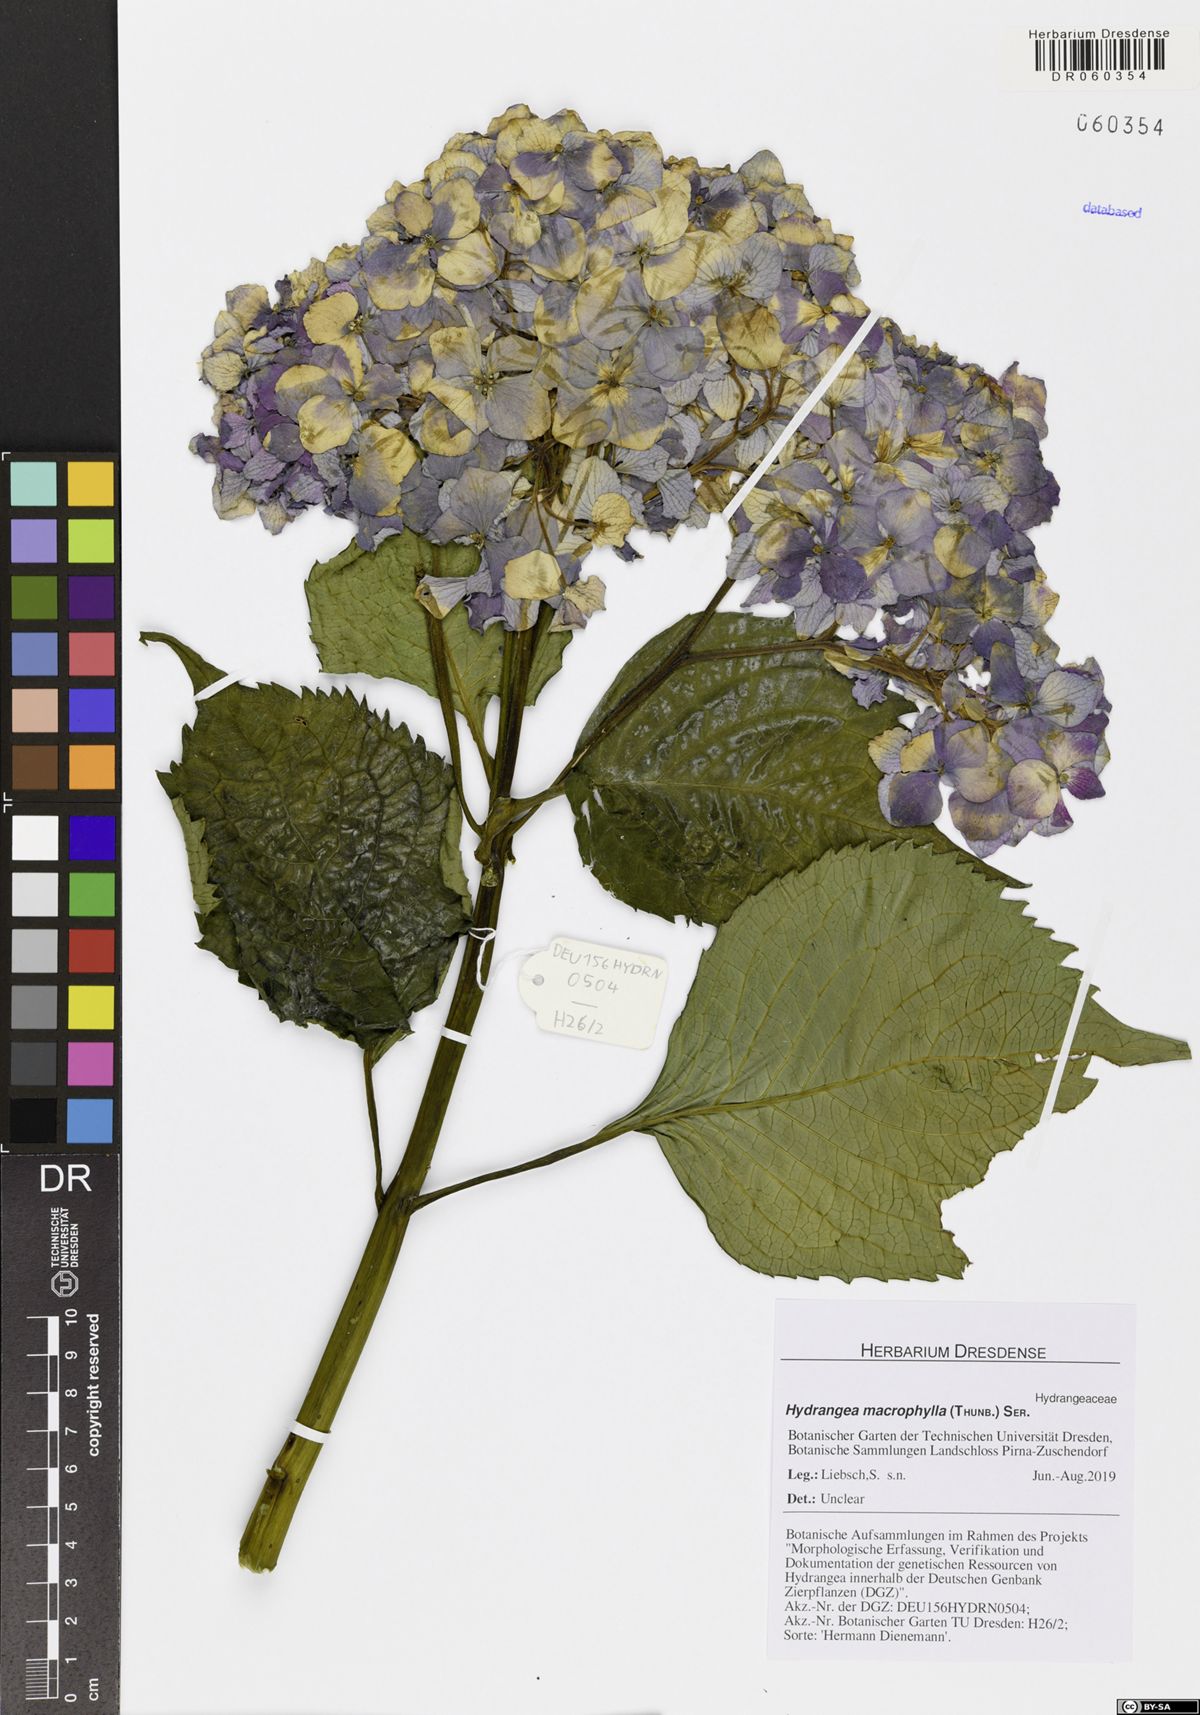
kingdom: Plantae
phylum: Tracheophyta
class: Magnoliopsida
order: Cornales
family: Hydrangeaceae
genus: Hydrangea
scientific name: Hydrangea macrophylla
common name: Hydrangea
